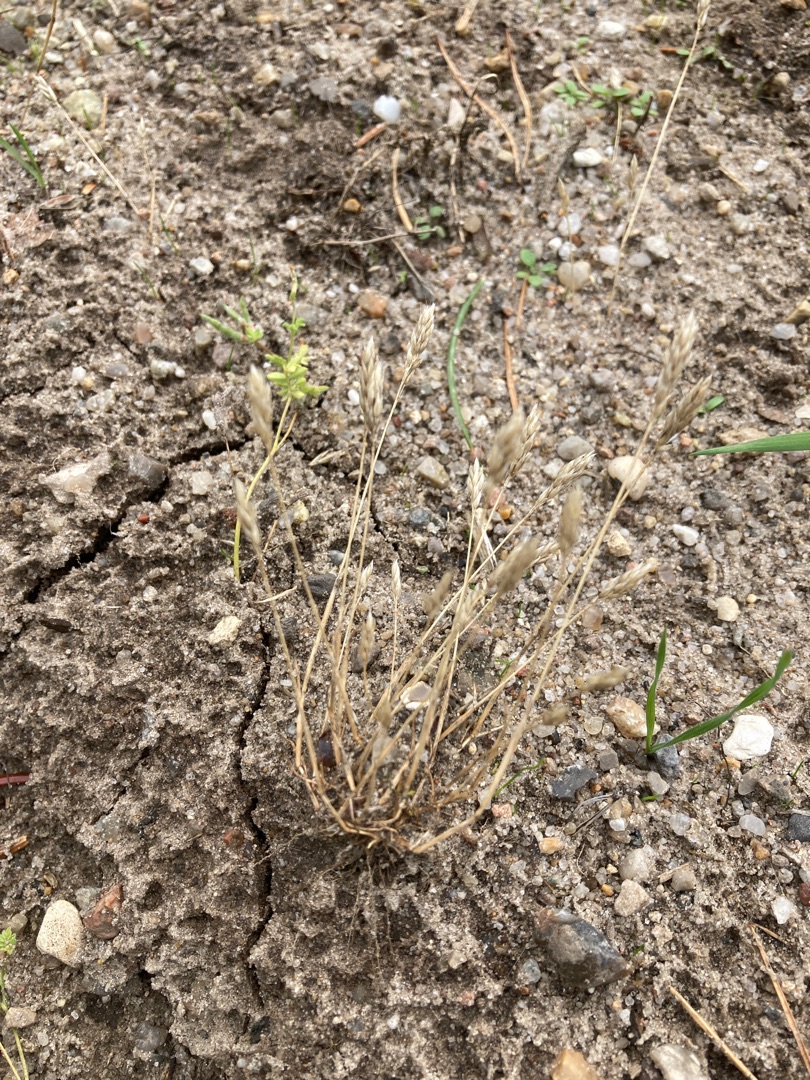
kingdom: Plantae
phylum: Tracheophyta
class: Liliopsida
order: Poales
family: Poaceae
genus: Aira
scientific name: Aira praecox
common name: Tidlig dværgbunke
